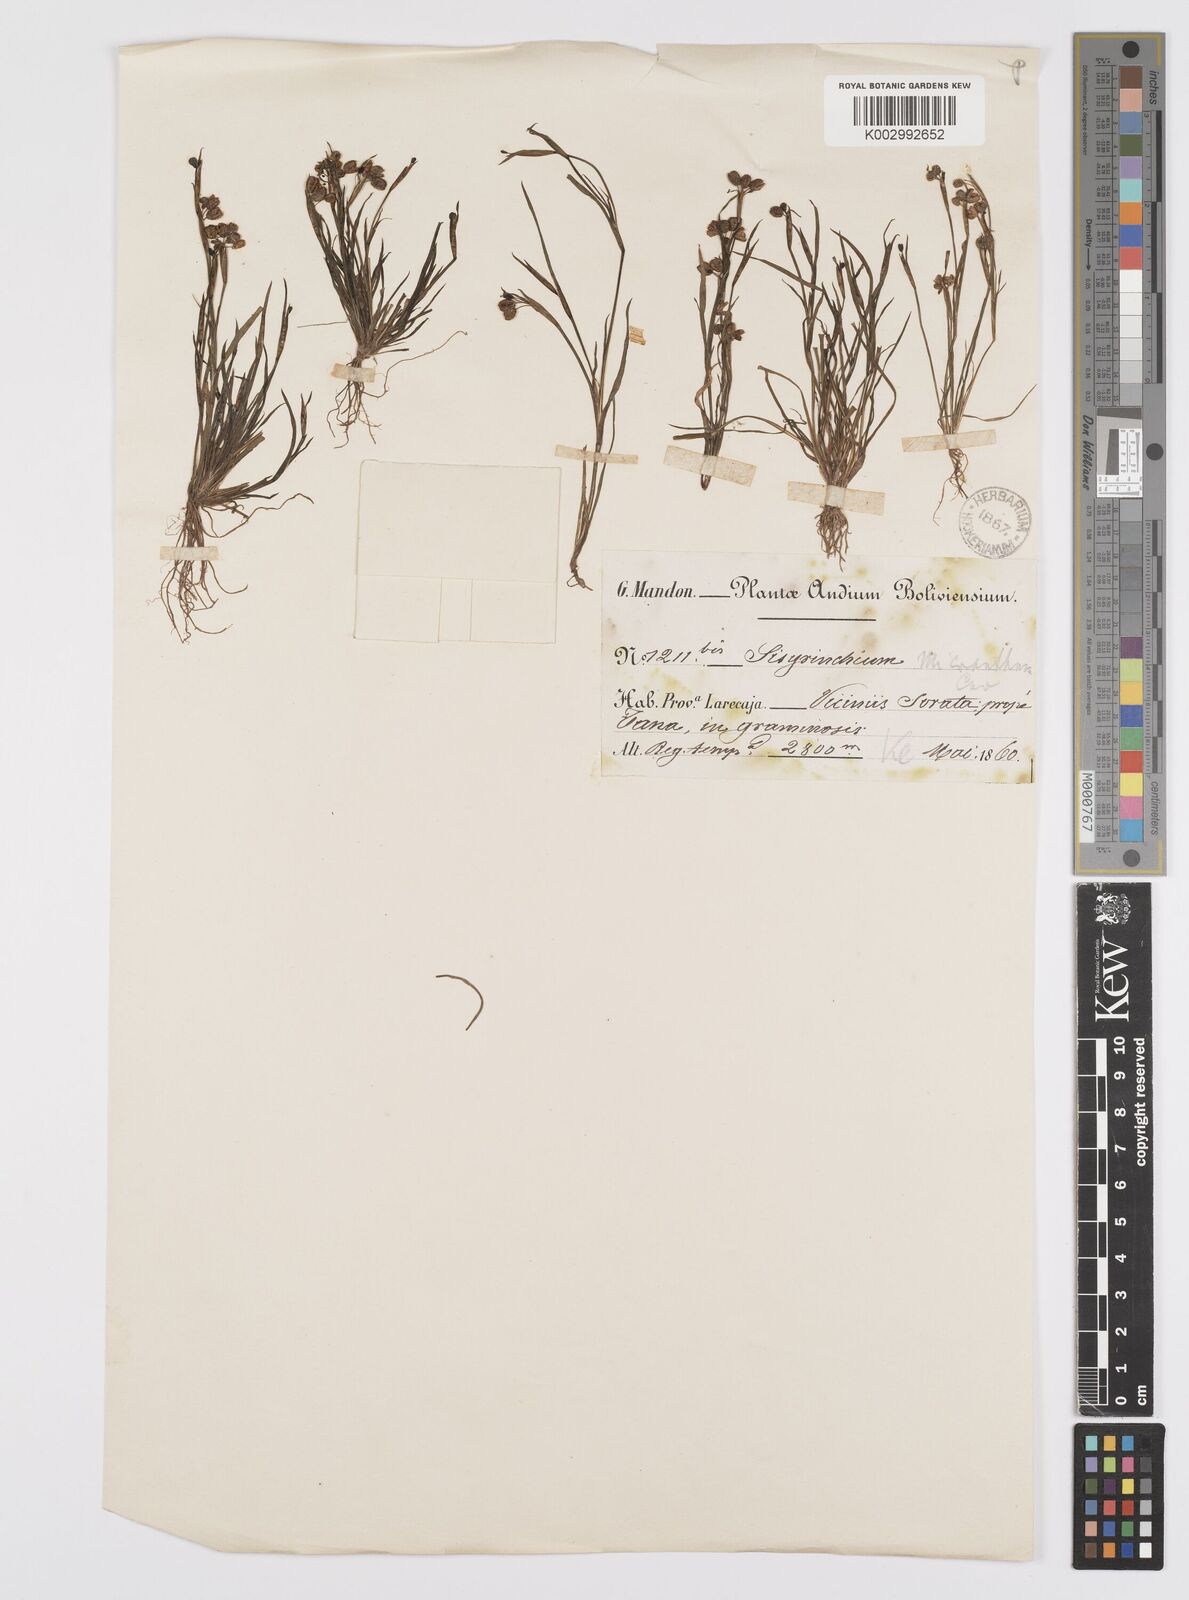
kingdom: Plantae
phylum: Tracheophyta
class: Liliopsida
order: Asparagales
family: Iridaceae
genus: Sisyrinchium
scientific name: Sisyrinchium
